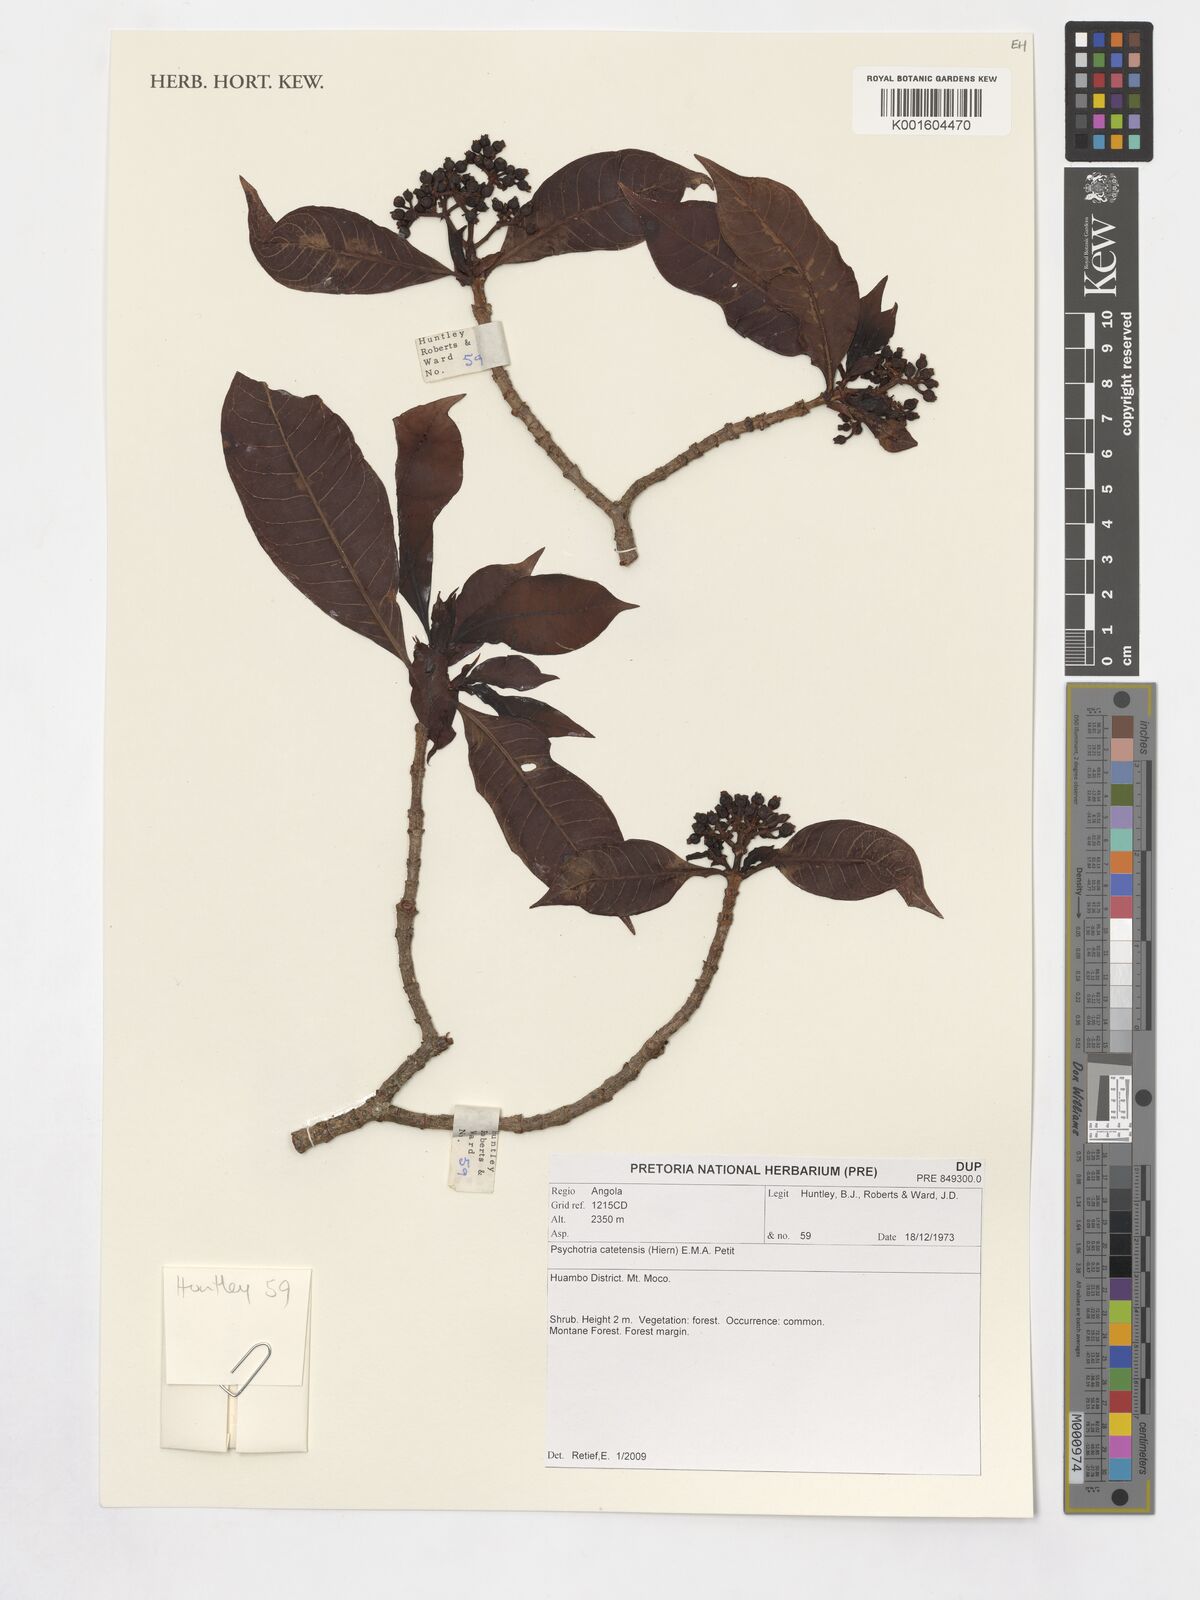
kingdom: Plantae
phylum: Tracheophyta
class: Magnoliopsida
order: Gentianales
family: Rubiaceae
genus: Psychotria
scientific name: Psychotria catetensis
